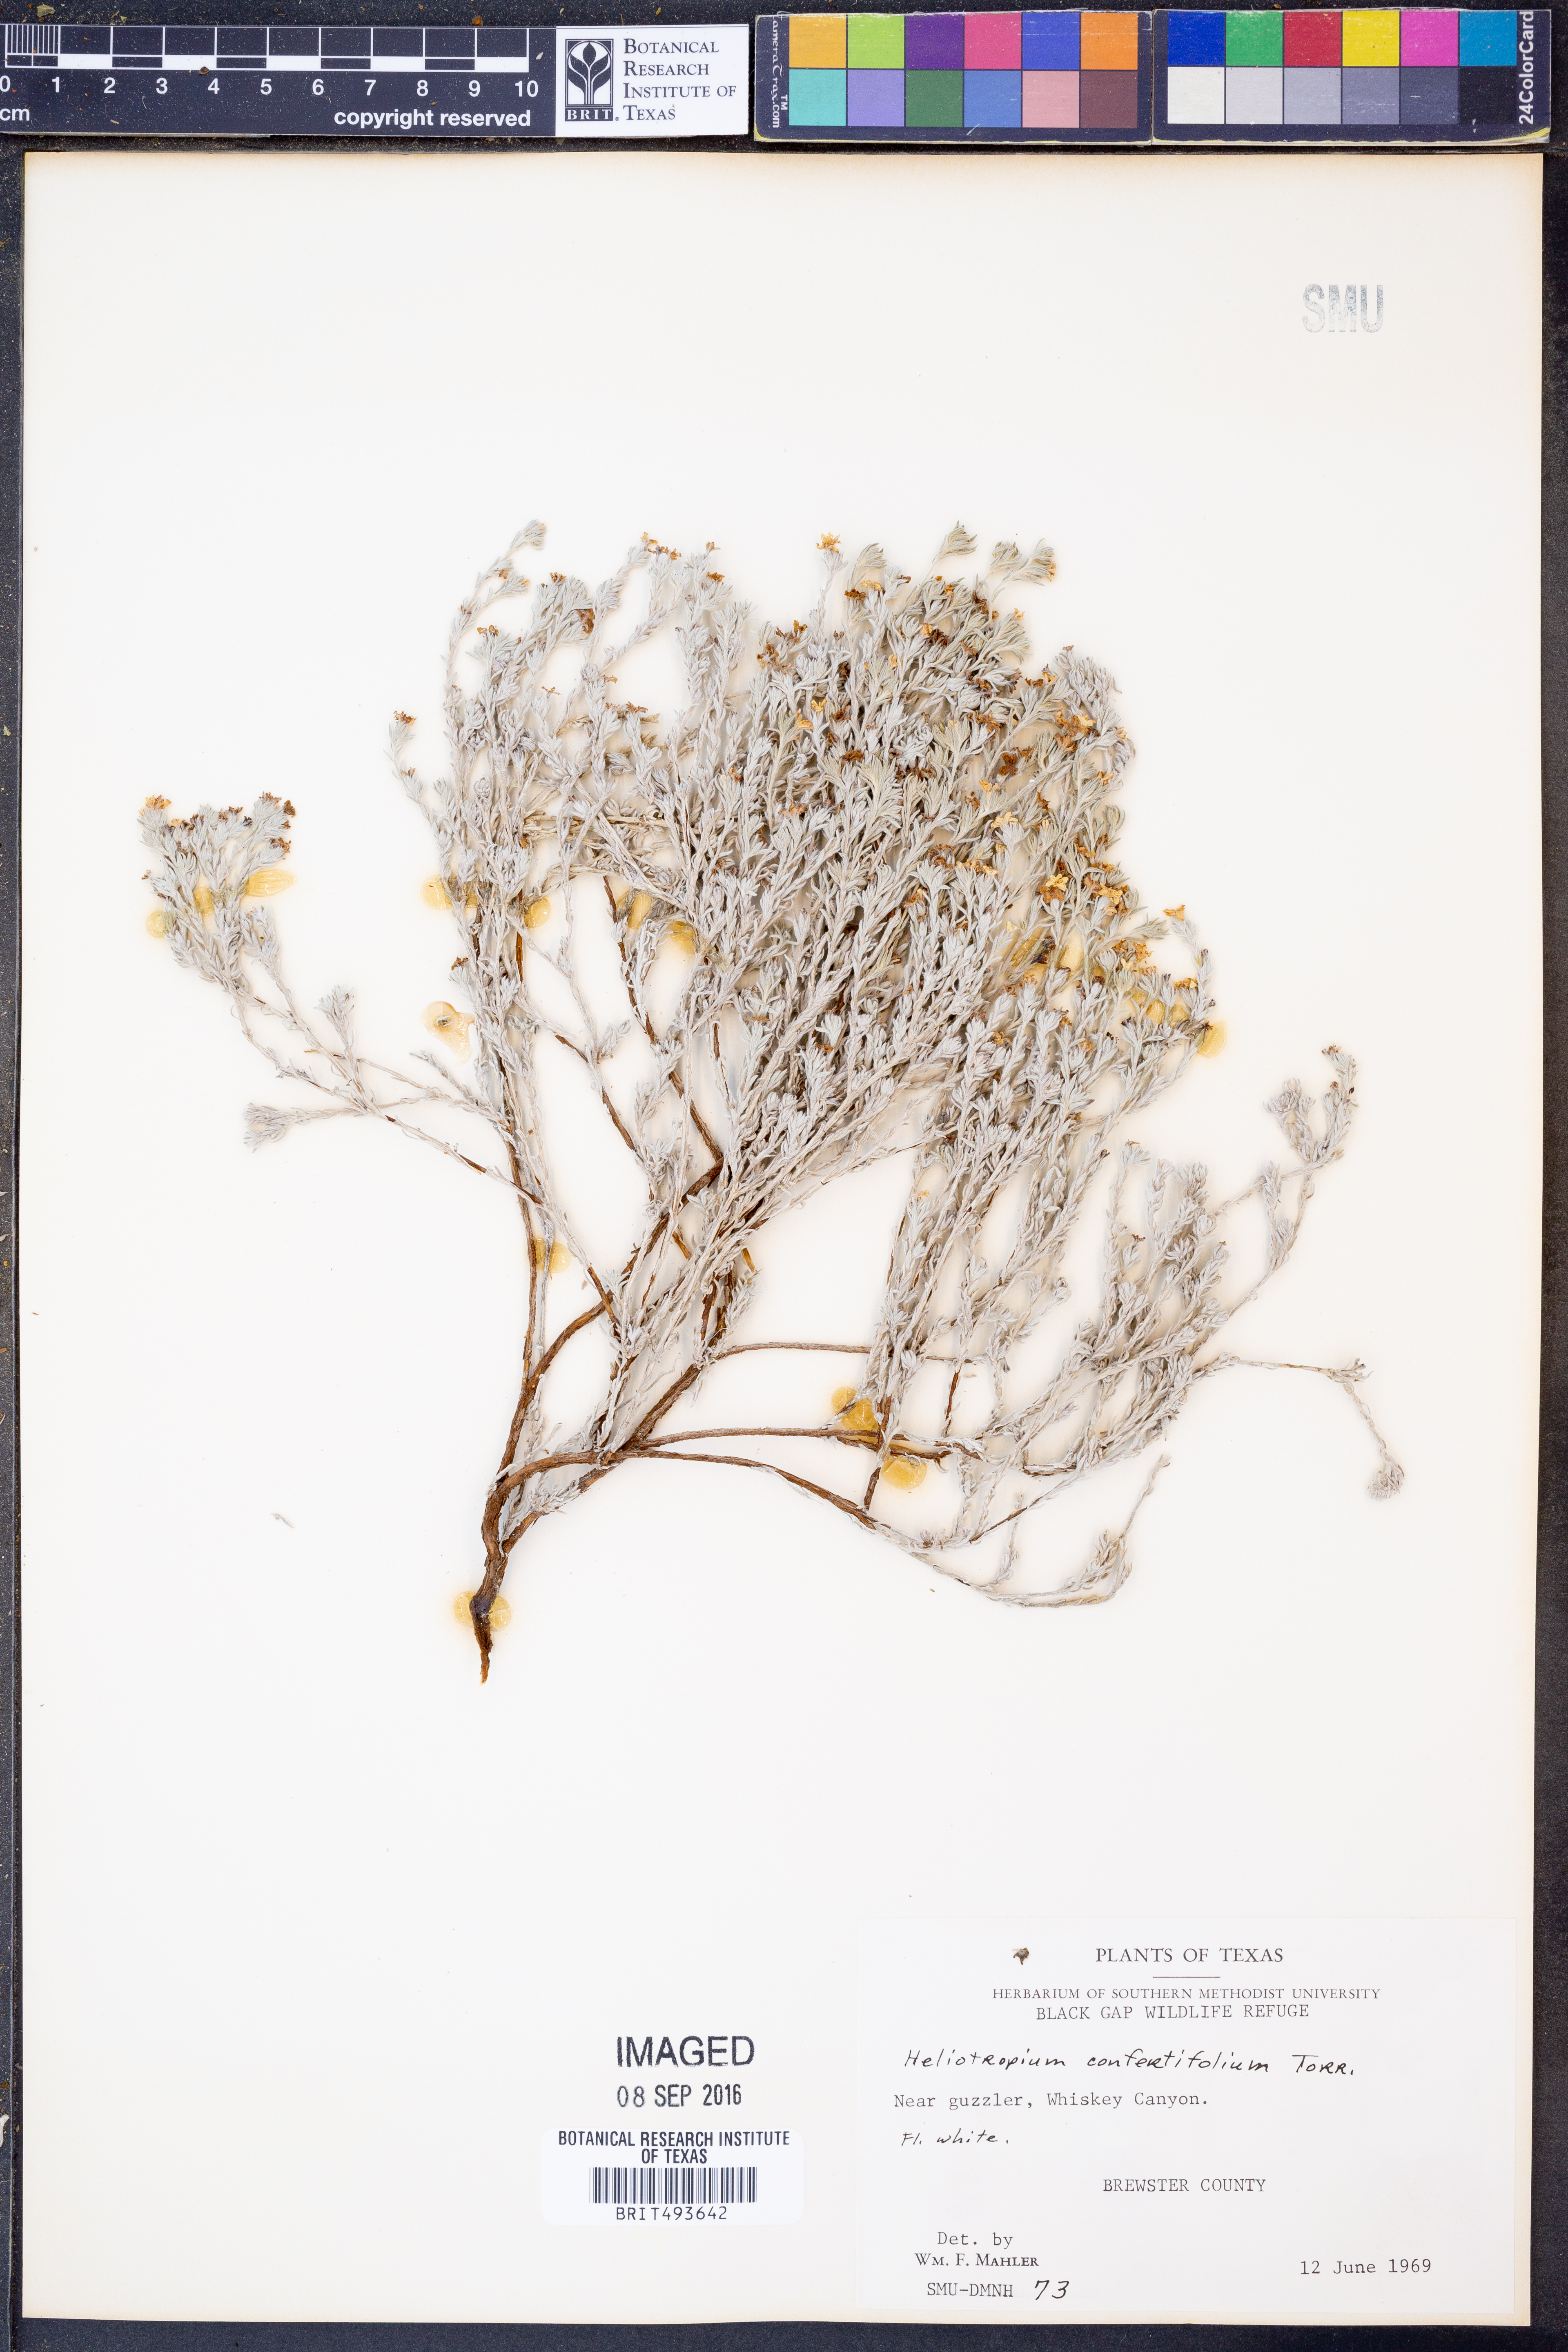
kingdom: Plantae
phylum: Tracheophyta
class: Magnoliopsida
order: Boraginales
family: Heliotropiaceae
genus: Euploca
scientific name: Euploca confertifolia
